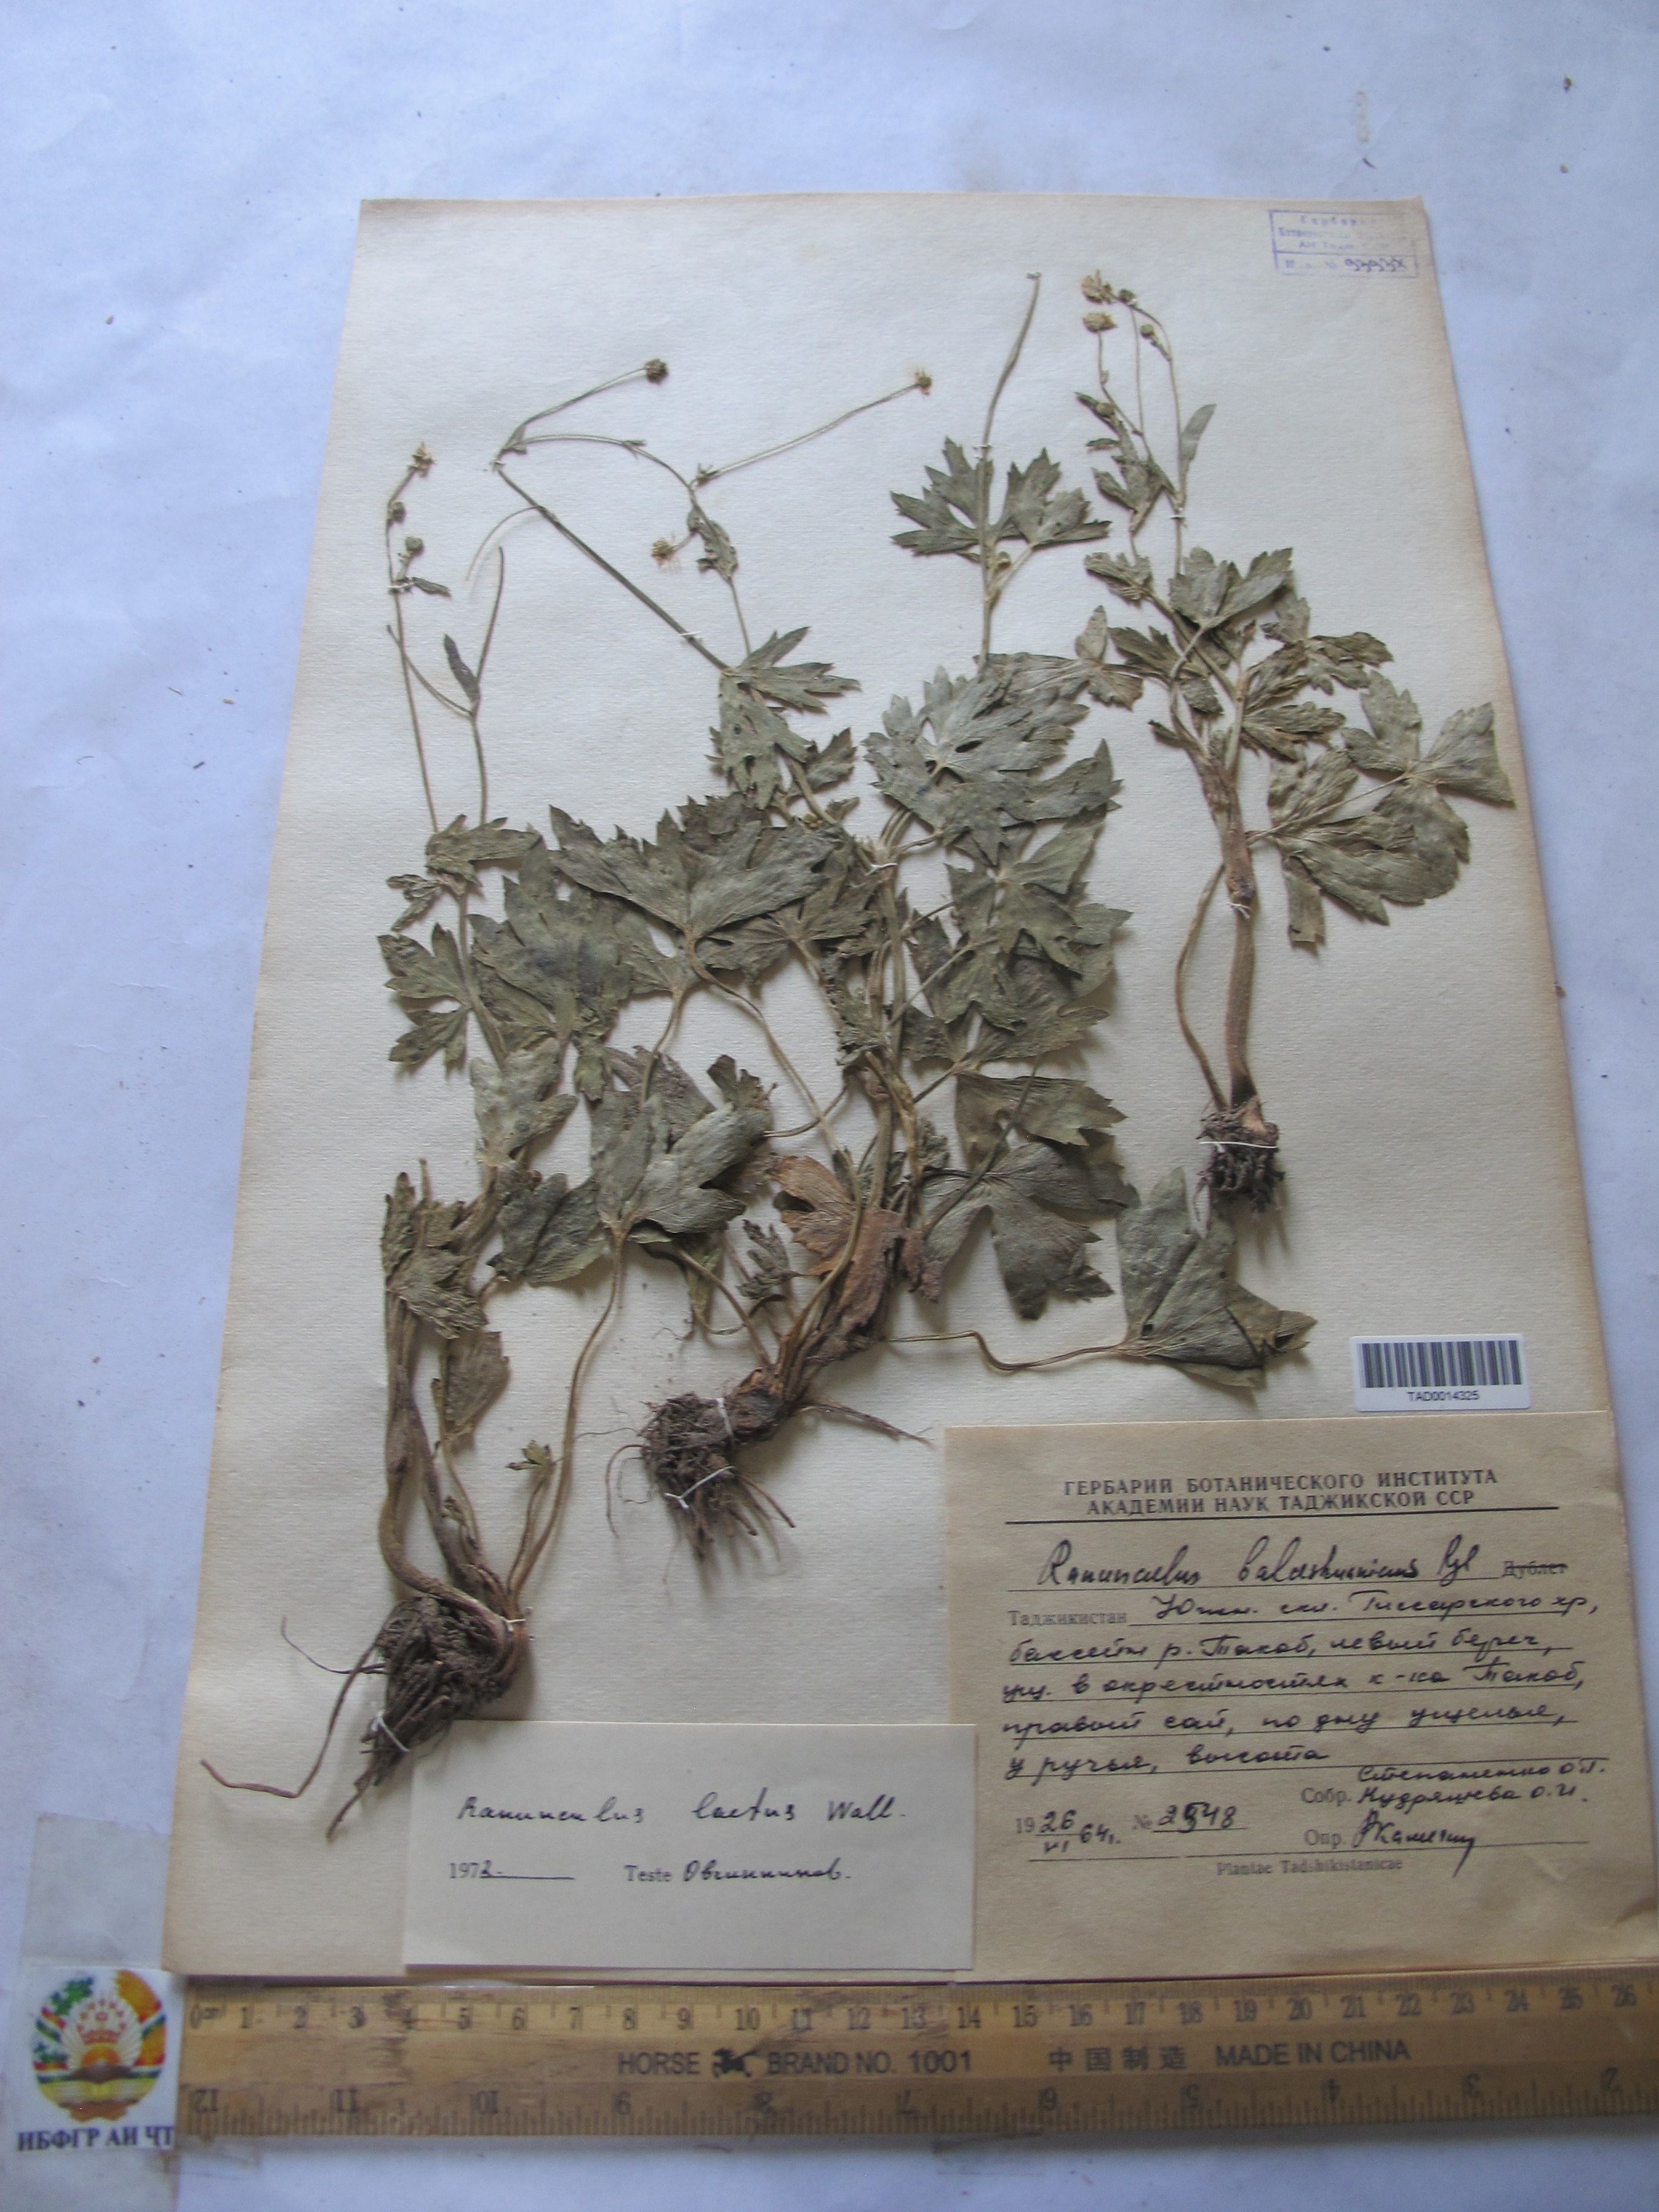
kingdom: Plantae
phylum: Tracheophyta
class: Magnoliopsida
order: Ranunculales
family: Ranunculaceae
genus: Ranunculus
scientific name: Ranunculus distans
